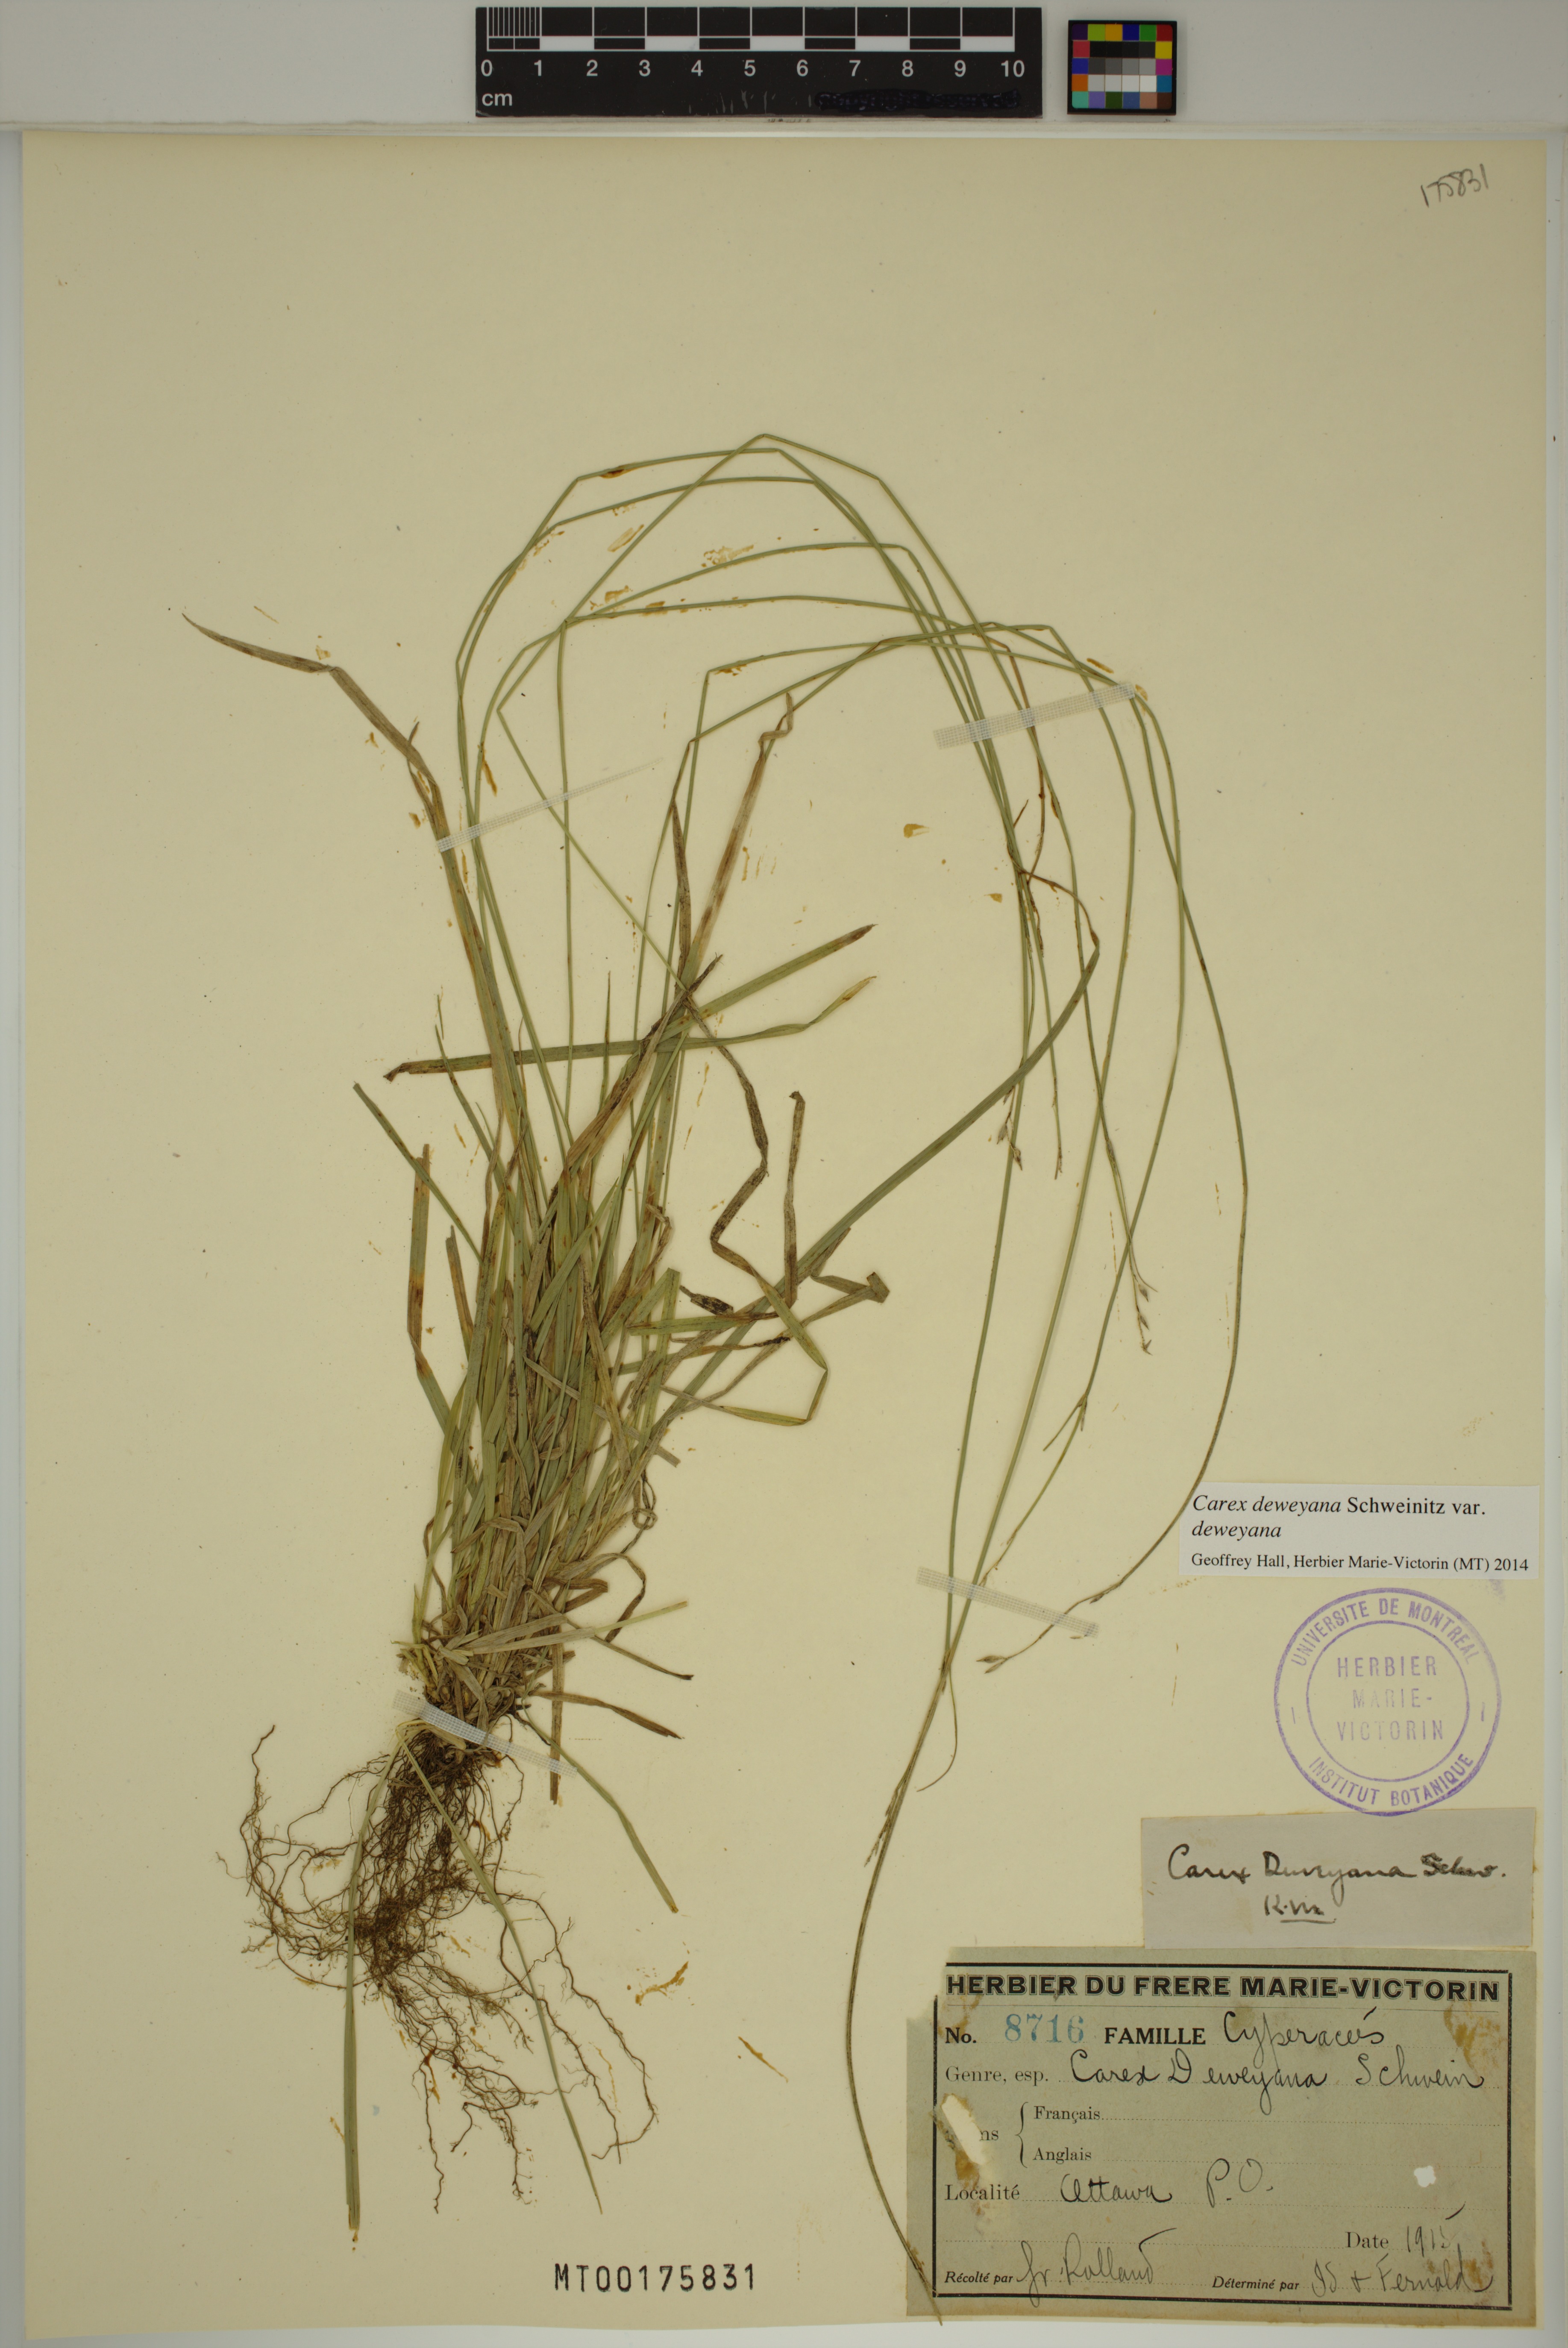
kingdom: Plantae
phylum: Tracheophyta
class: Liliopsida
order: Poales
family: Cyperaceae
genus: Carex
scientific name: Carex deweyana
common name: Dewey's sedge
